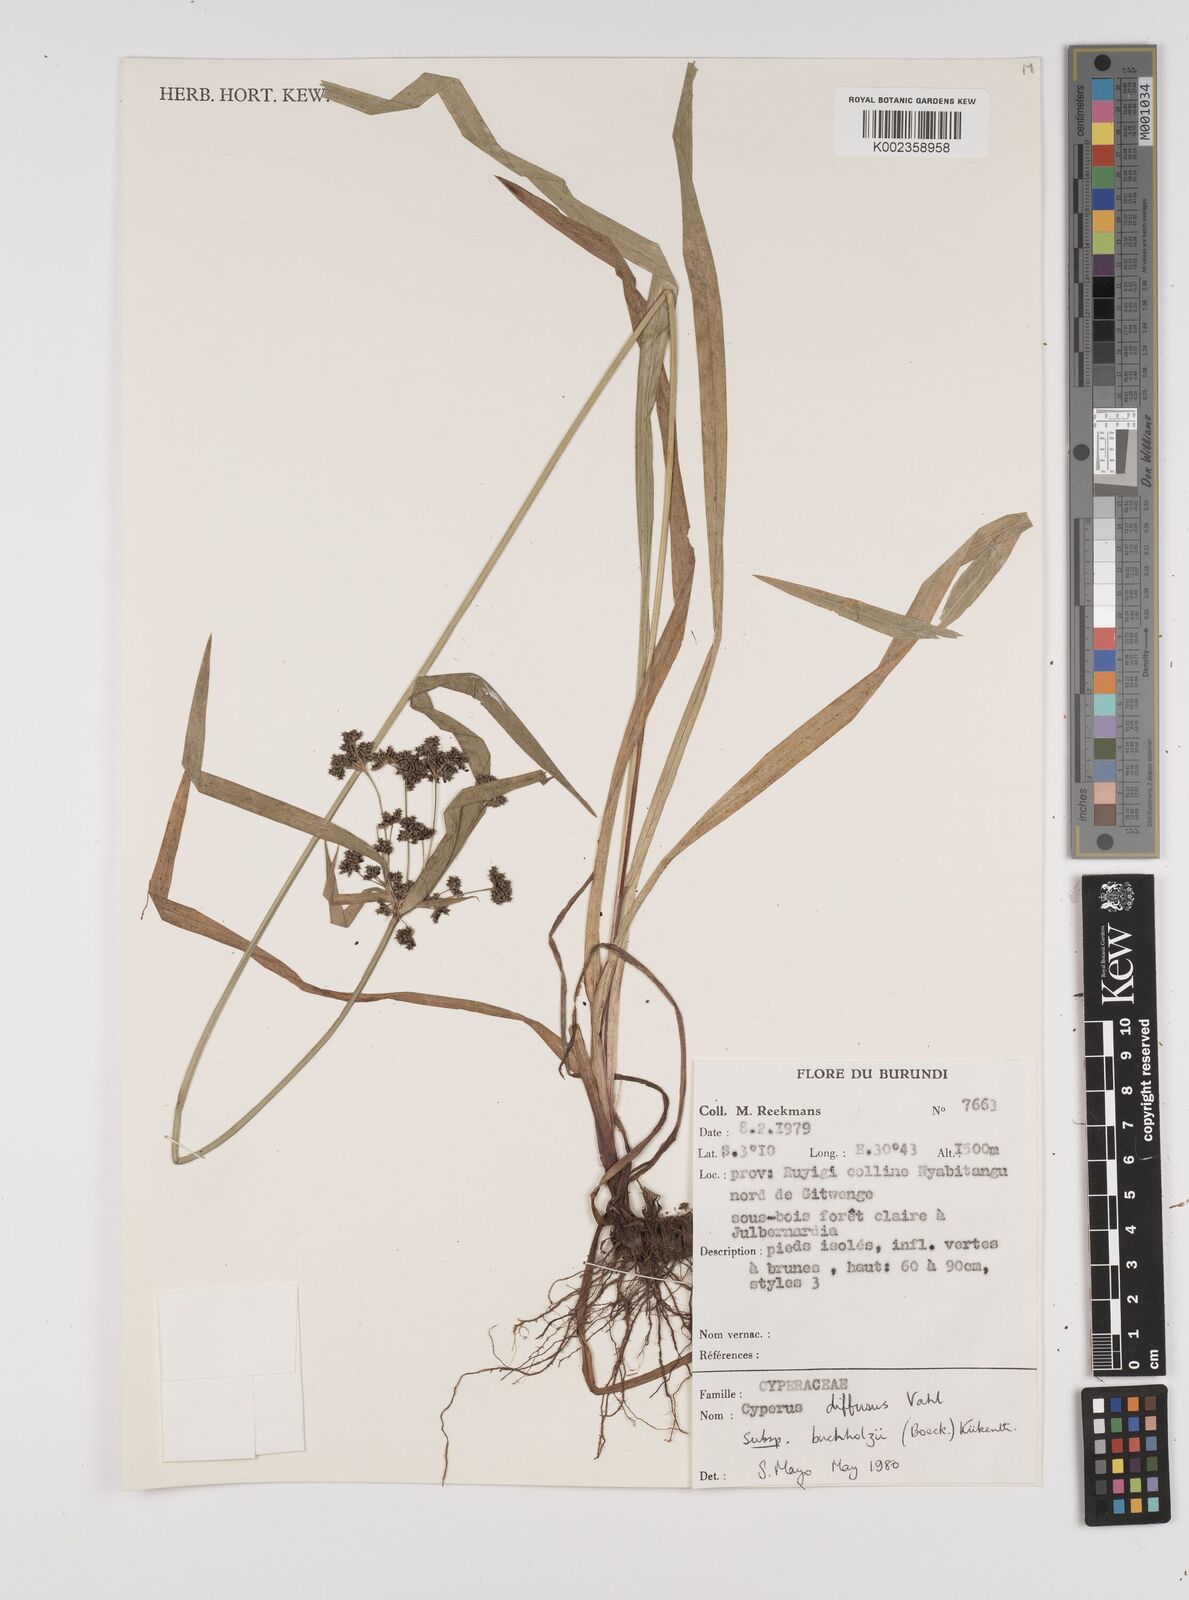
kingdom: Plantae
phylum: Tracheophyta
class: Liliopsida
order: Poales
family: Cyperaceae
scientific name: Cyperaceae
